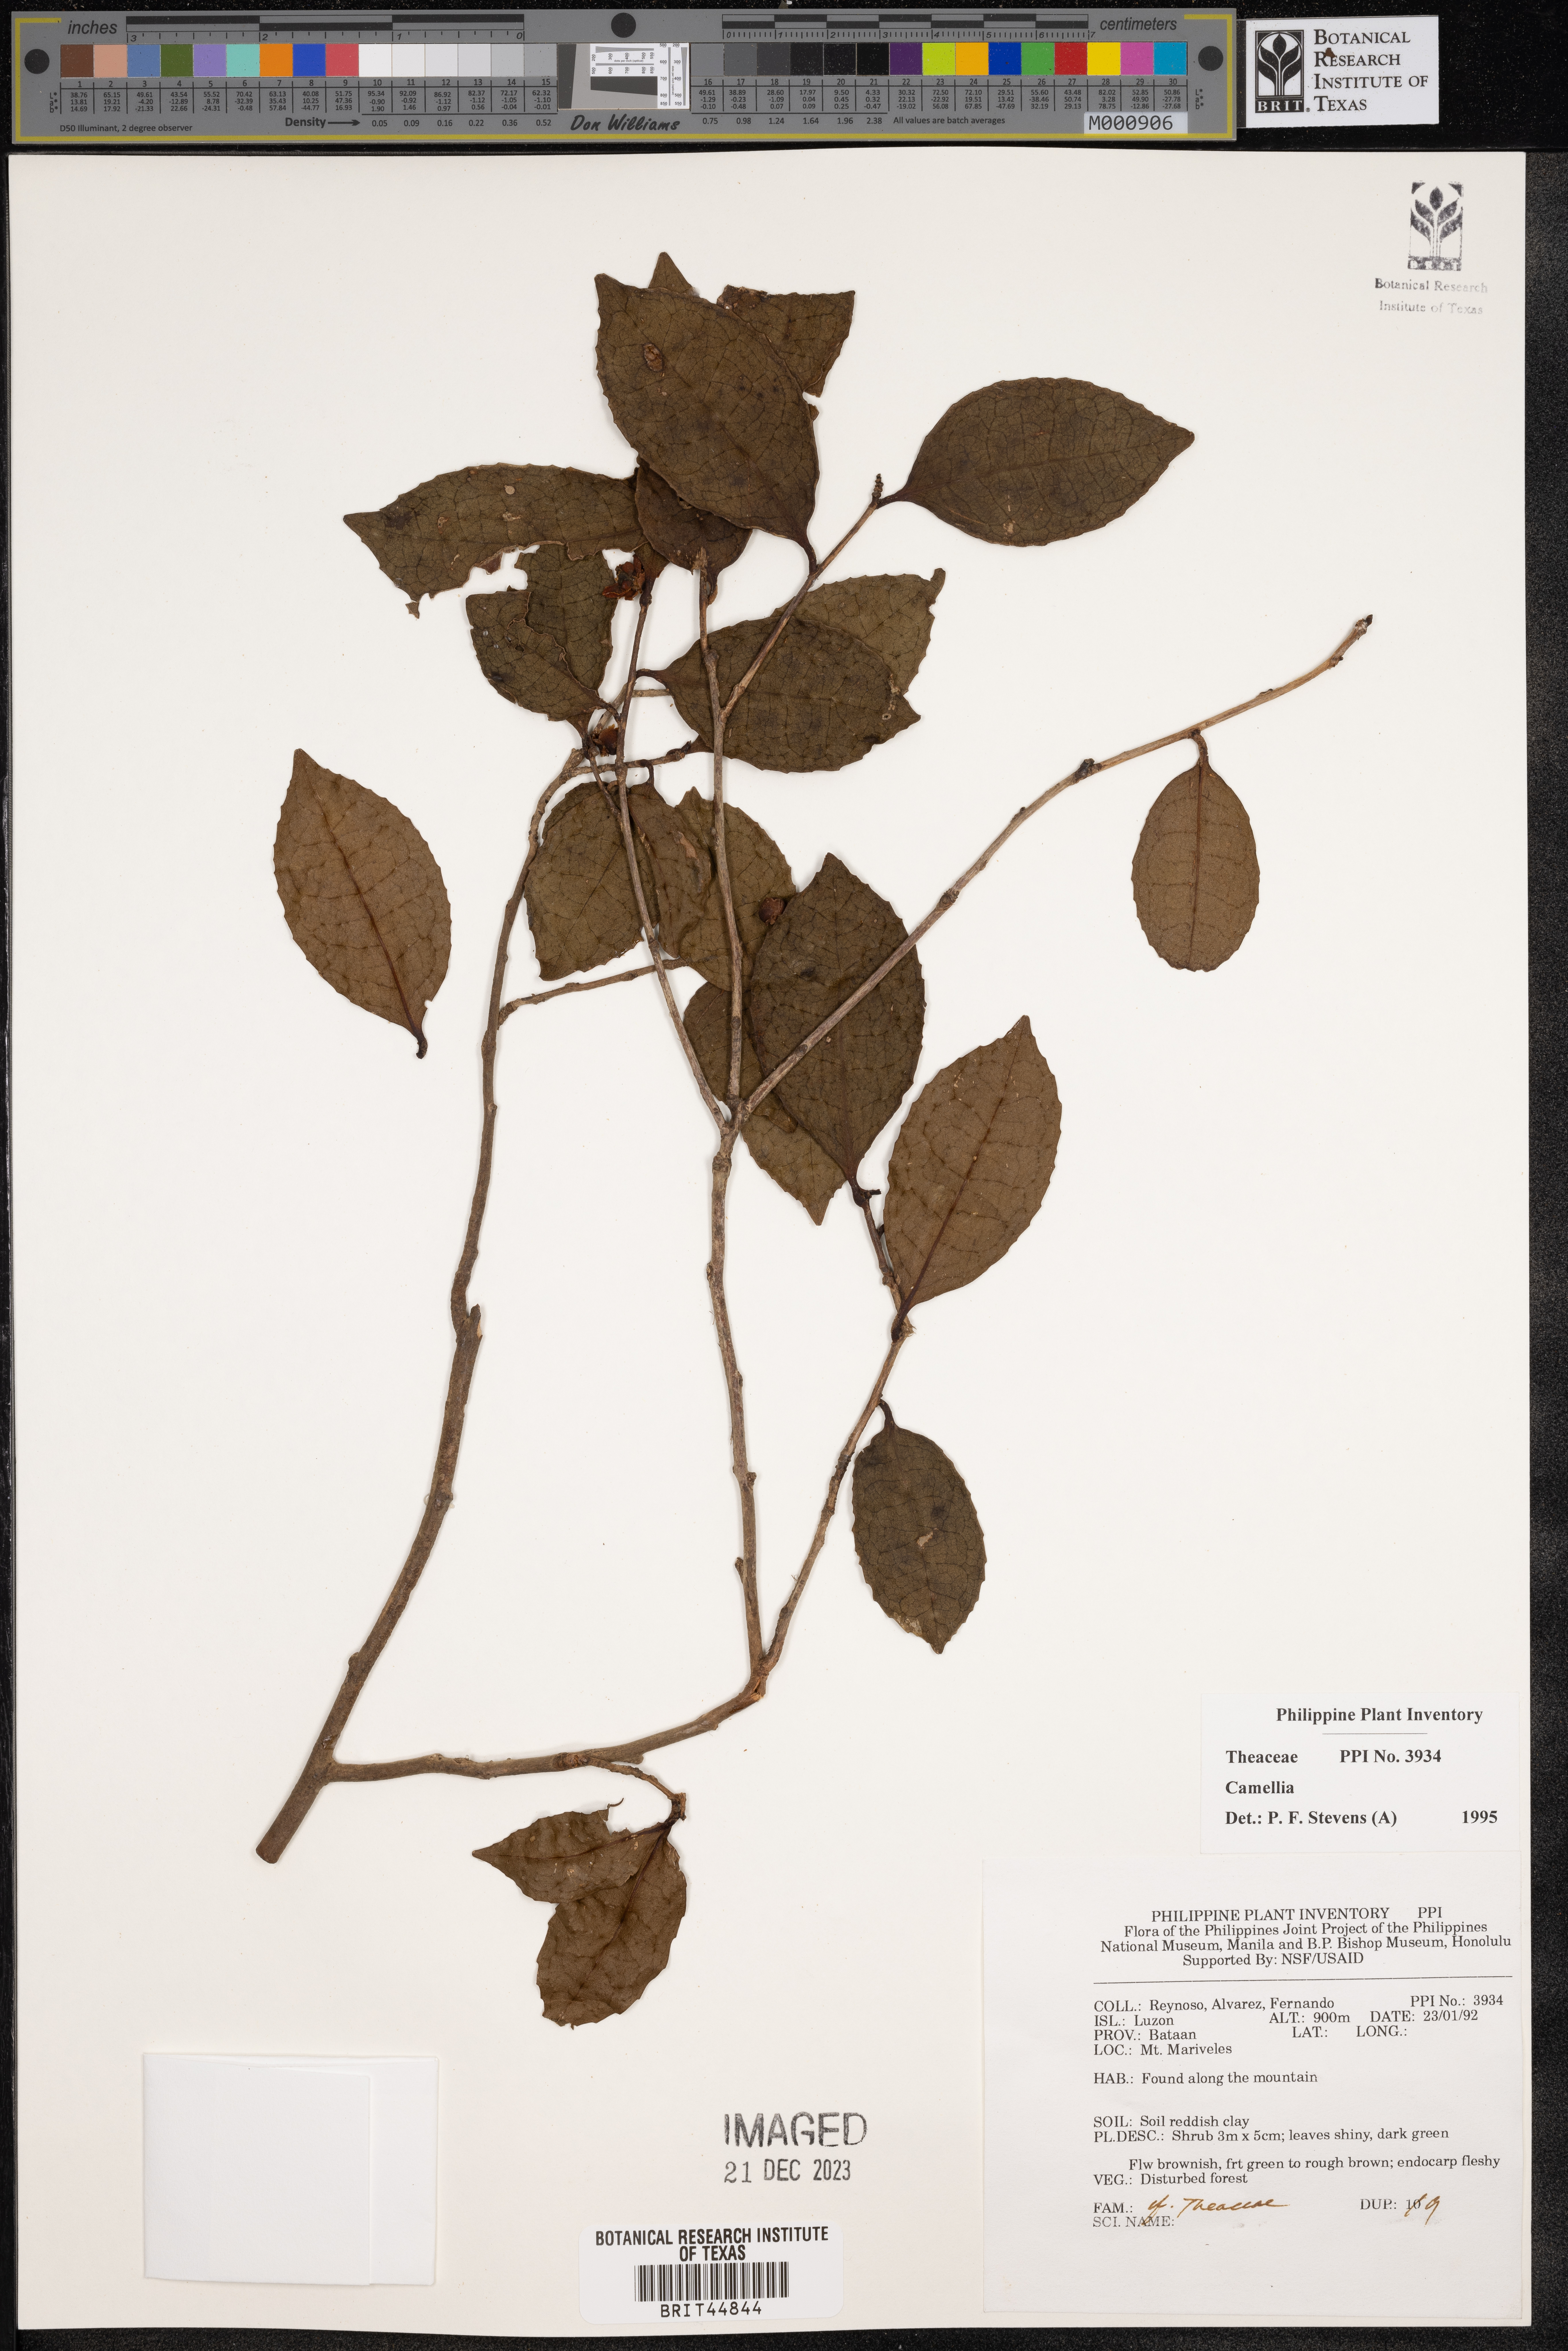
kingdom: Plantae
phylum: Tracheophyta
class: Magnoliopsida
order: Ericales
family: Theaceae
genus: Camellia
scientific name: Camellia
